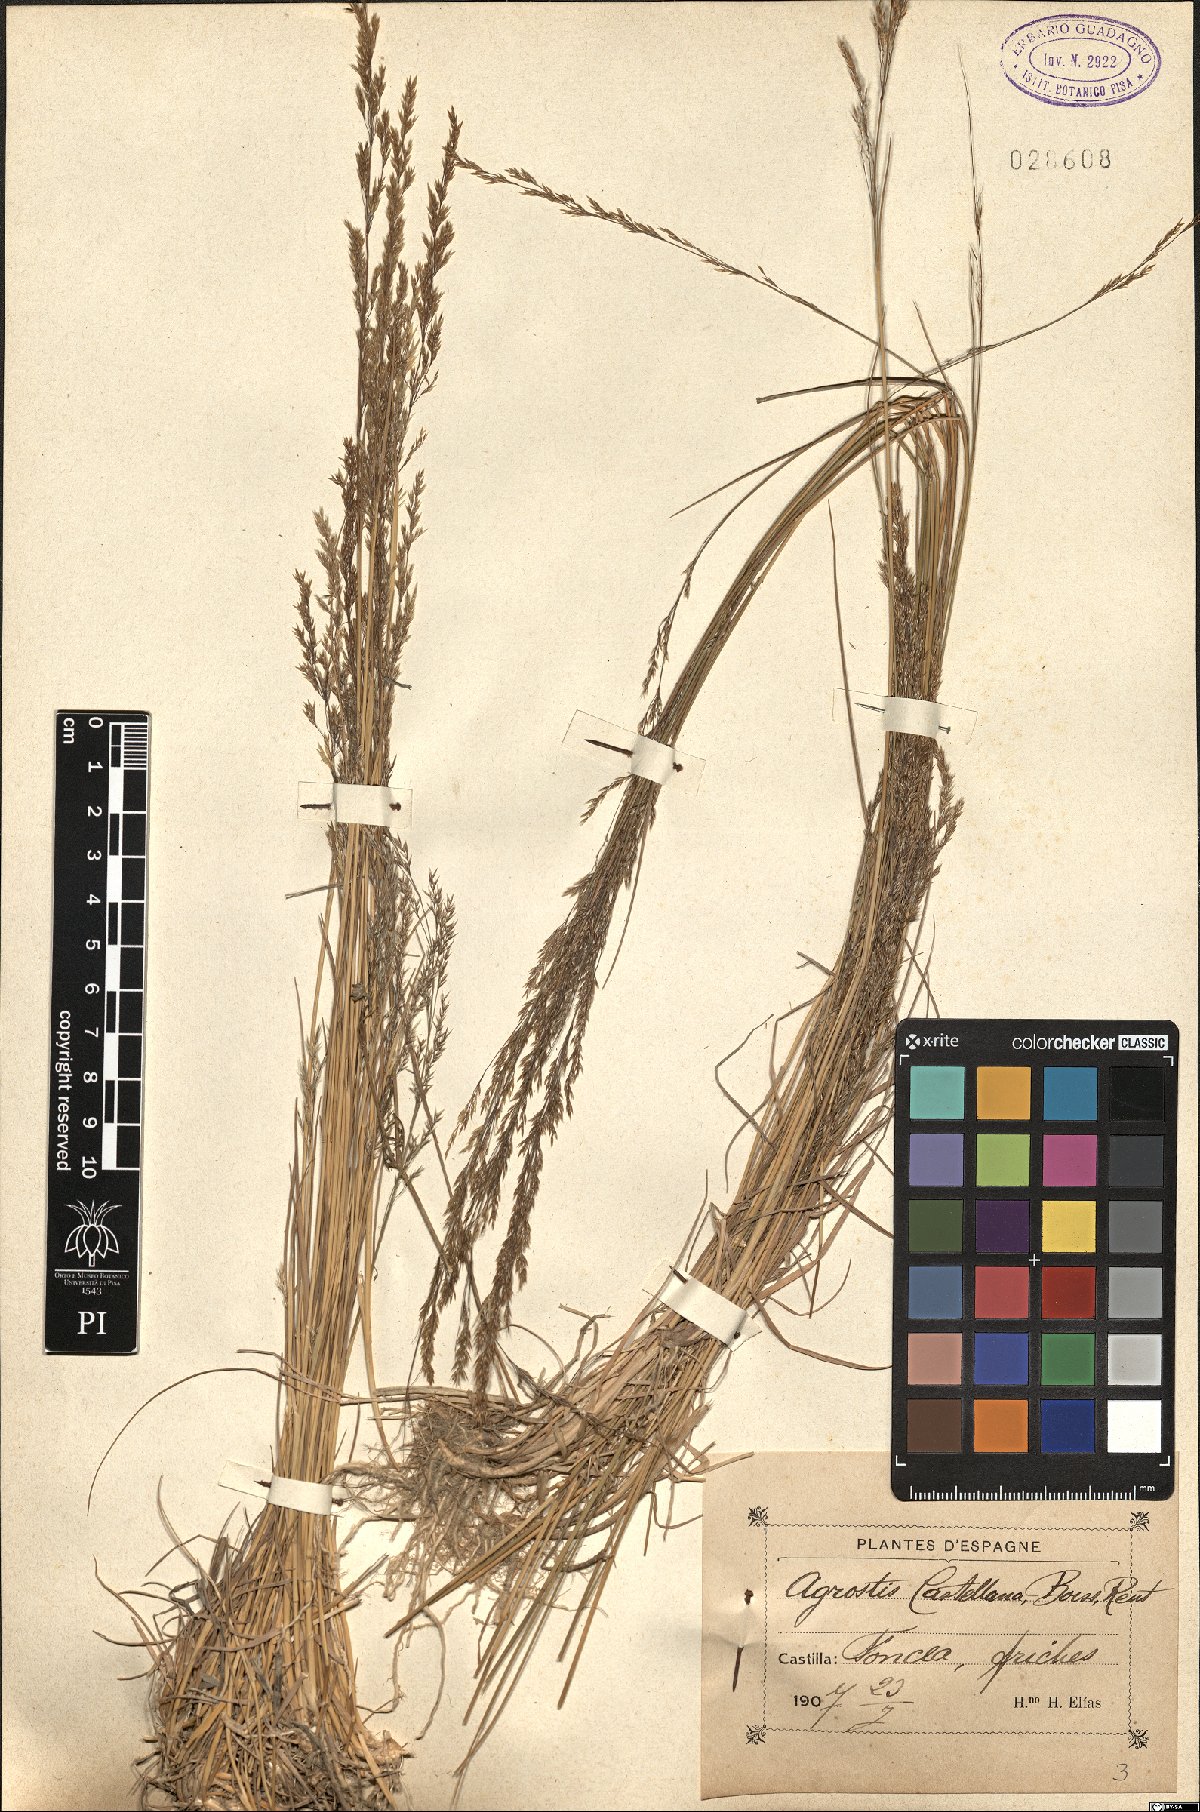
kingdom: Plantae
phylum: Tracheophyta
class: Liliopsida
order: Poales
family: Poaceae
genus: Agrostis
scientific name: Agrostis castellana
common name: Highland bent
